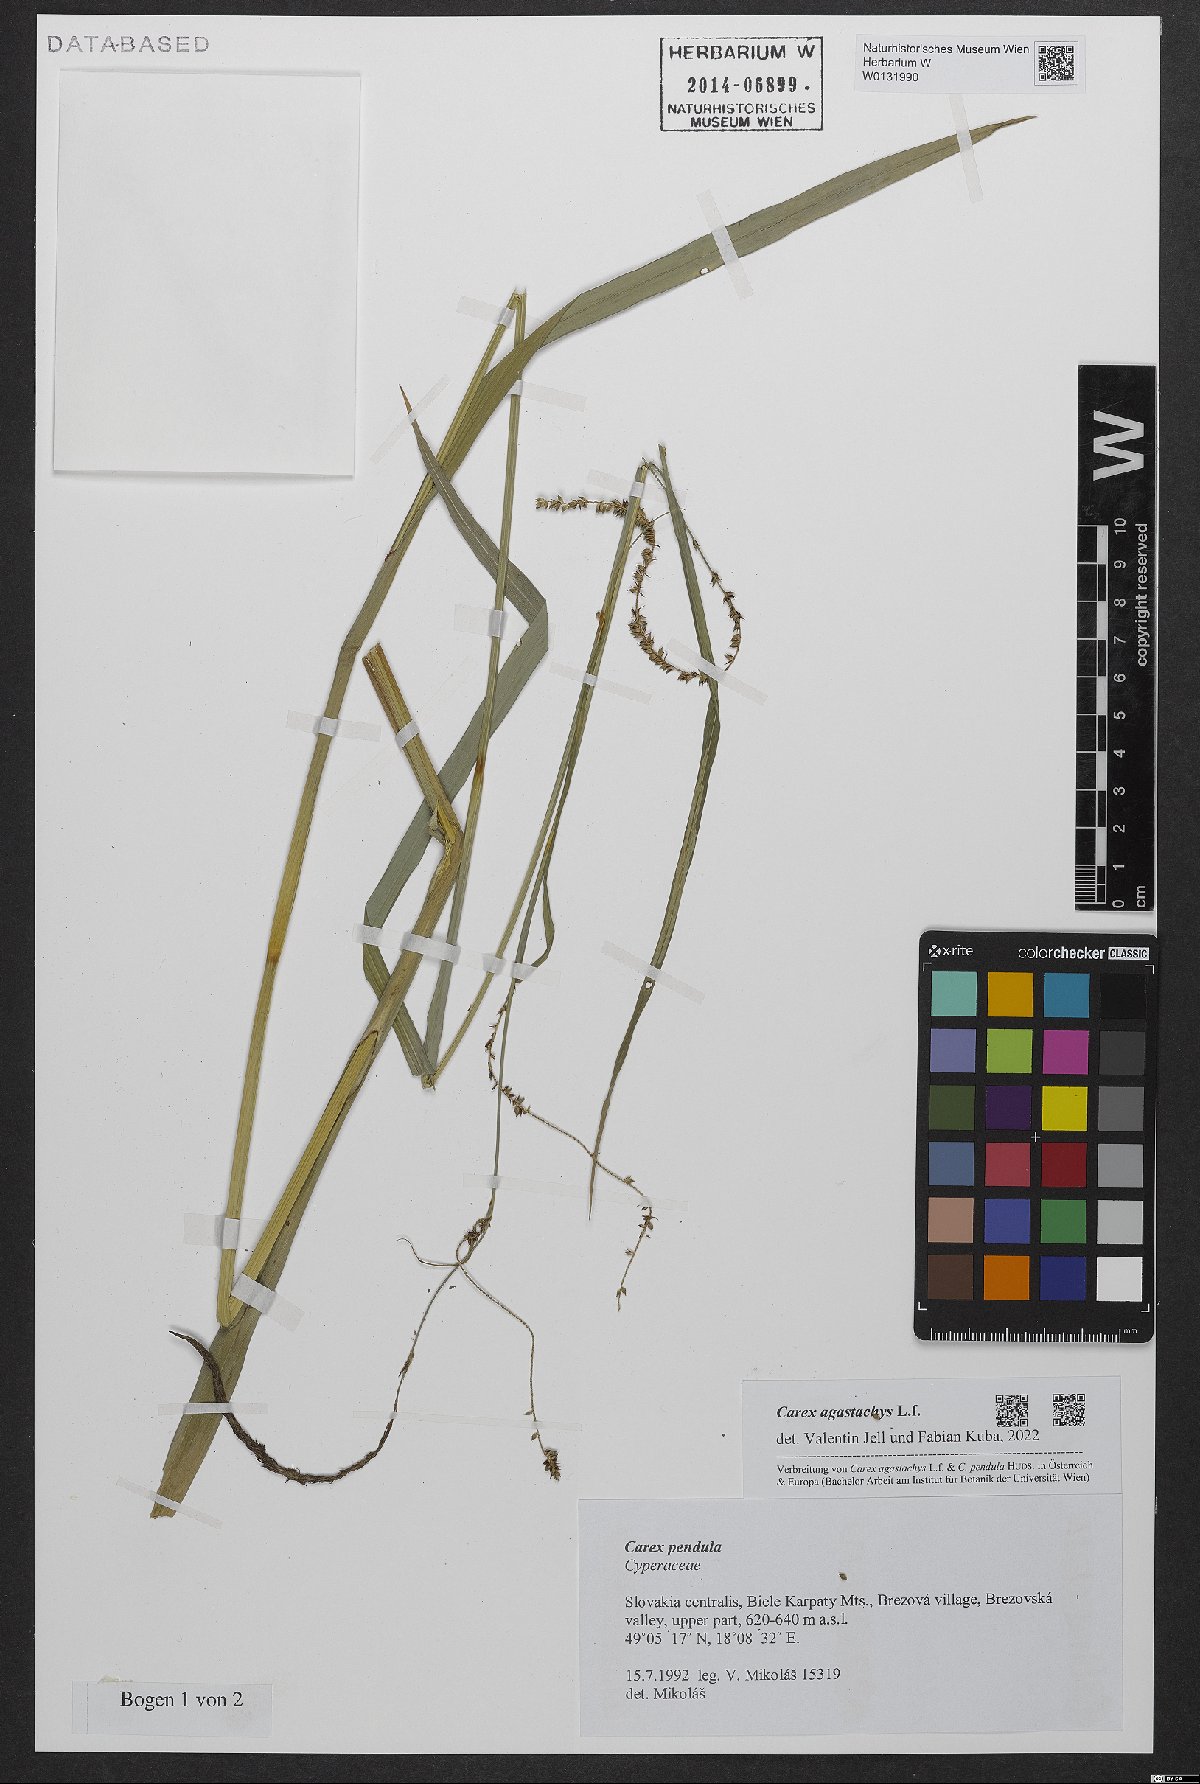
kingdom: Plantae
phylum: Tracheophyta
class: Liliopsida
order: Poales
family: Cyperaceae
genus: Carex
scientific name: Carex agastachys
